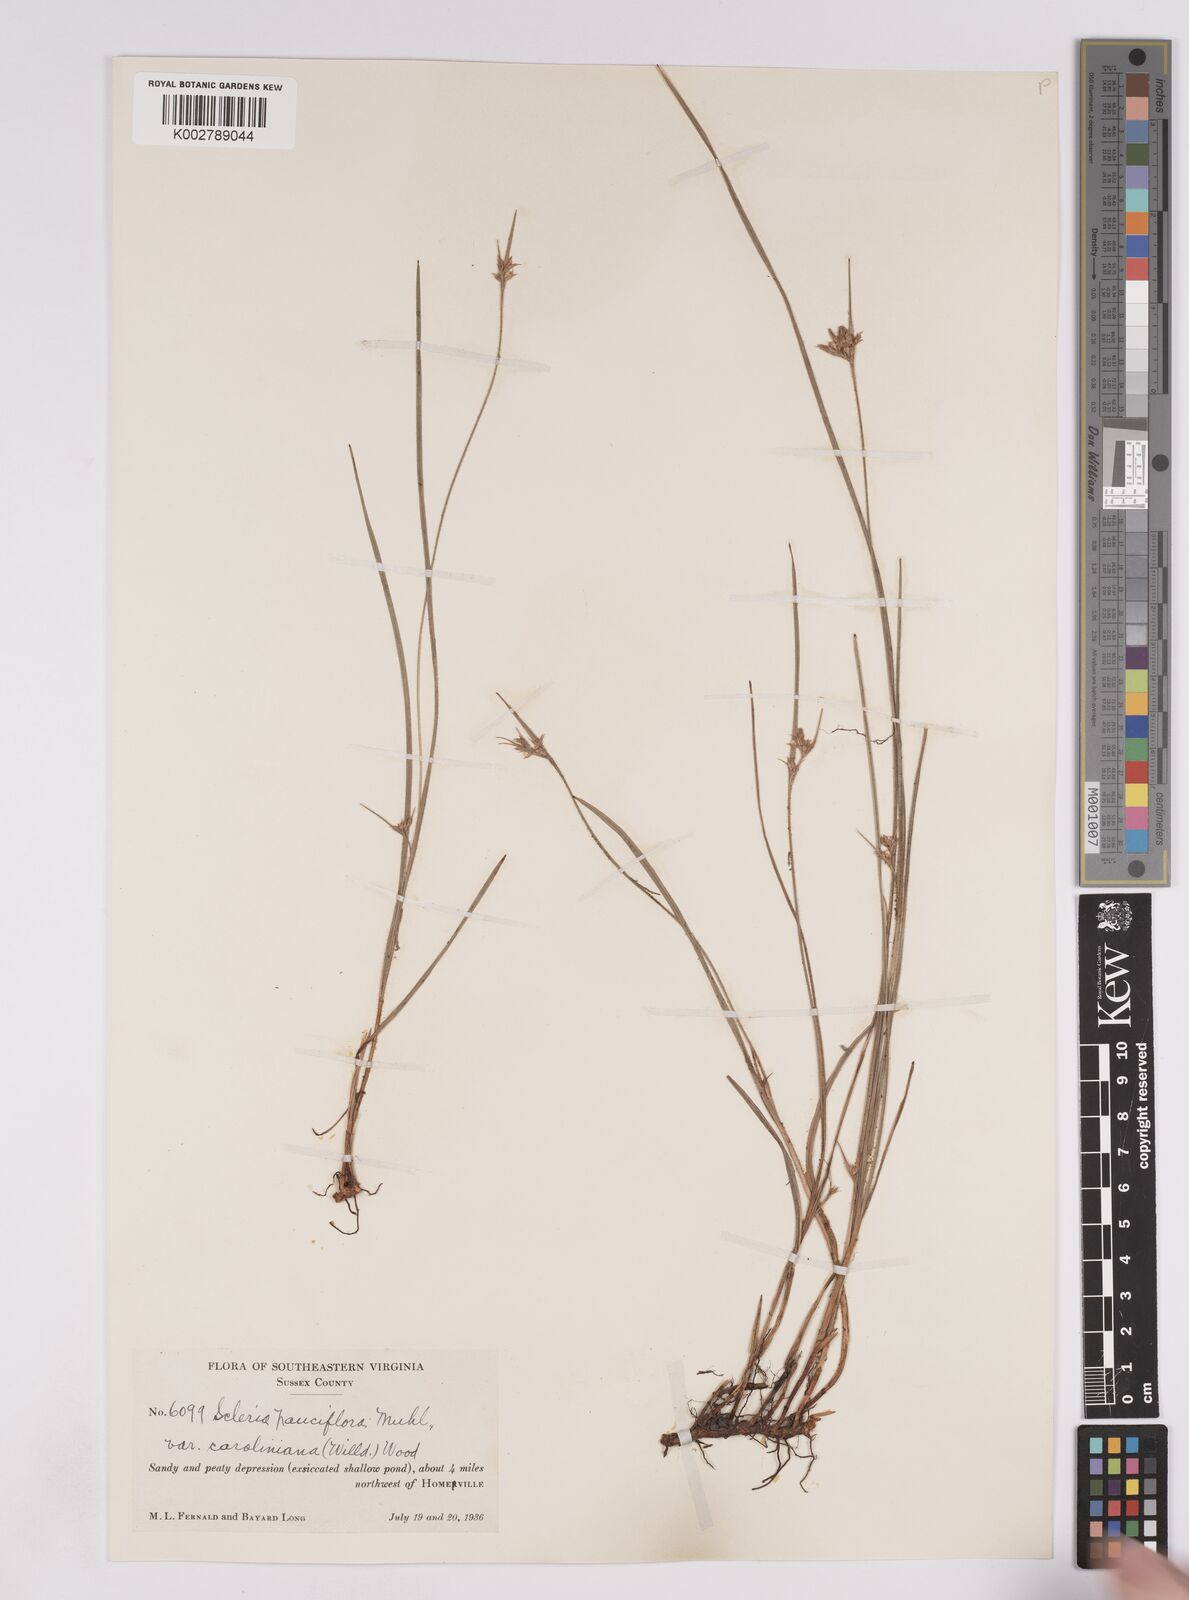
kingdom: Plantae
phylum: Tracheophyta
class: Liliopsida
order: Poales
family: Cyperaceae
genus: Scleria
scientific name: Scleria pauciflora
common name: Few-flowered nutrush
